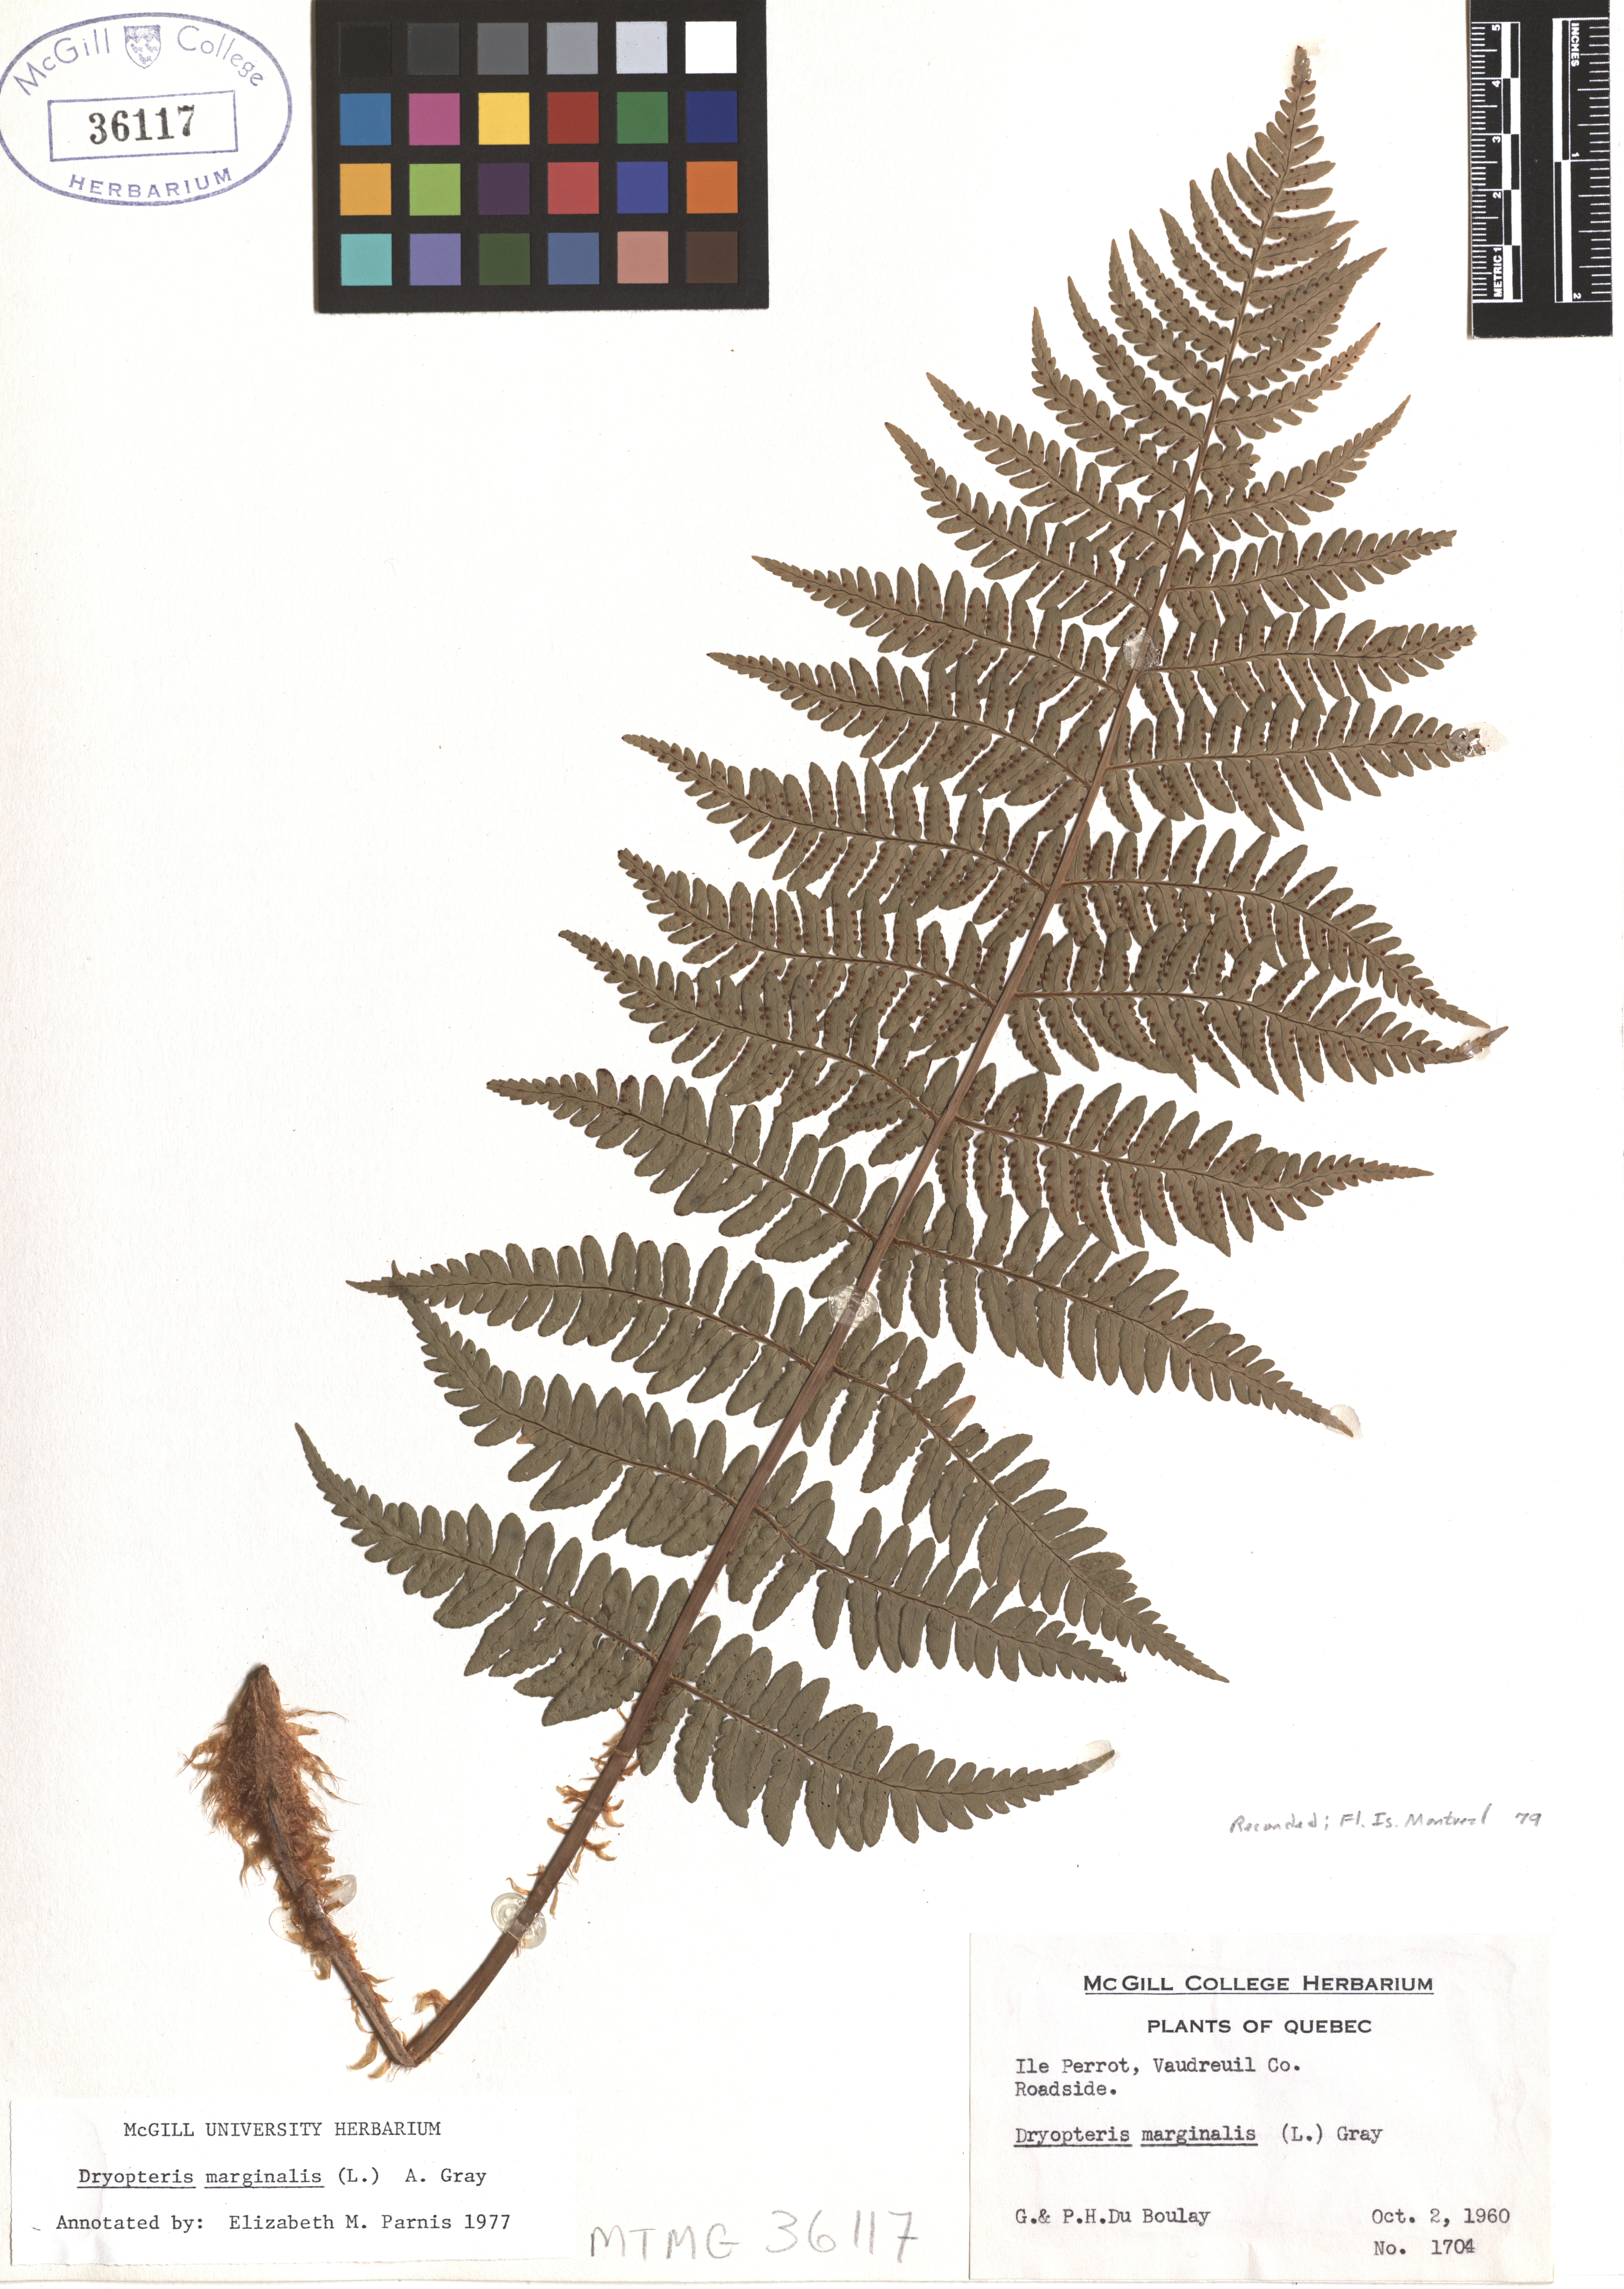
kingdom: Plantae
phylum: Tracheophyta
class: Polypodiopsida
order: Polypodiales
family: Dryopteridaceae
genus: Dryopteris
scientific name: Dryopteris marginalis
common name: Marginal wood fern
